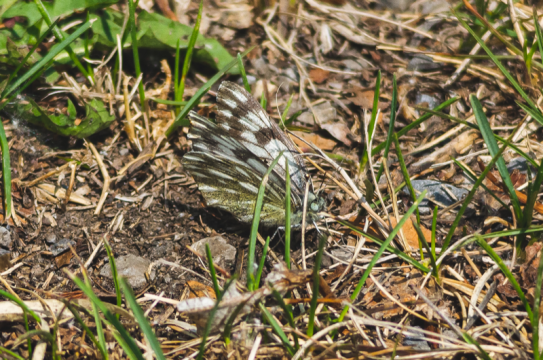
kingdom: Animalia
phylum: Arthropoda
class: Insecta
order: Lepidoptera
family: Pieridae
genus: Pontia
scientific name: Pontia occidentalis
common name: Western White
